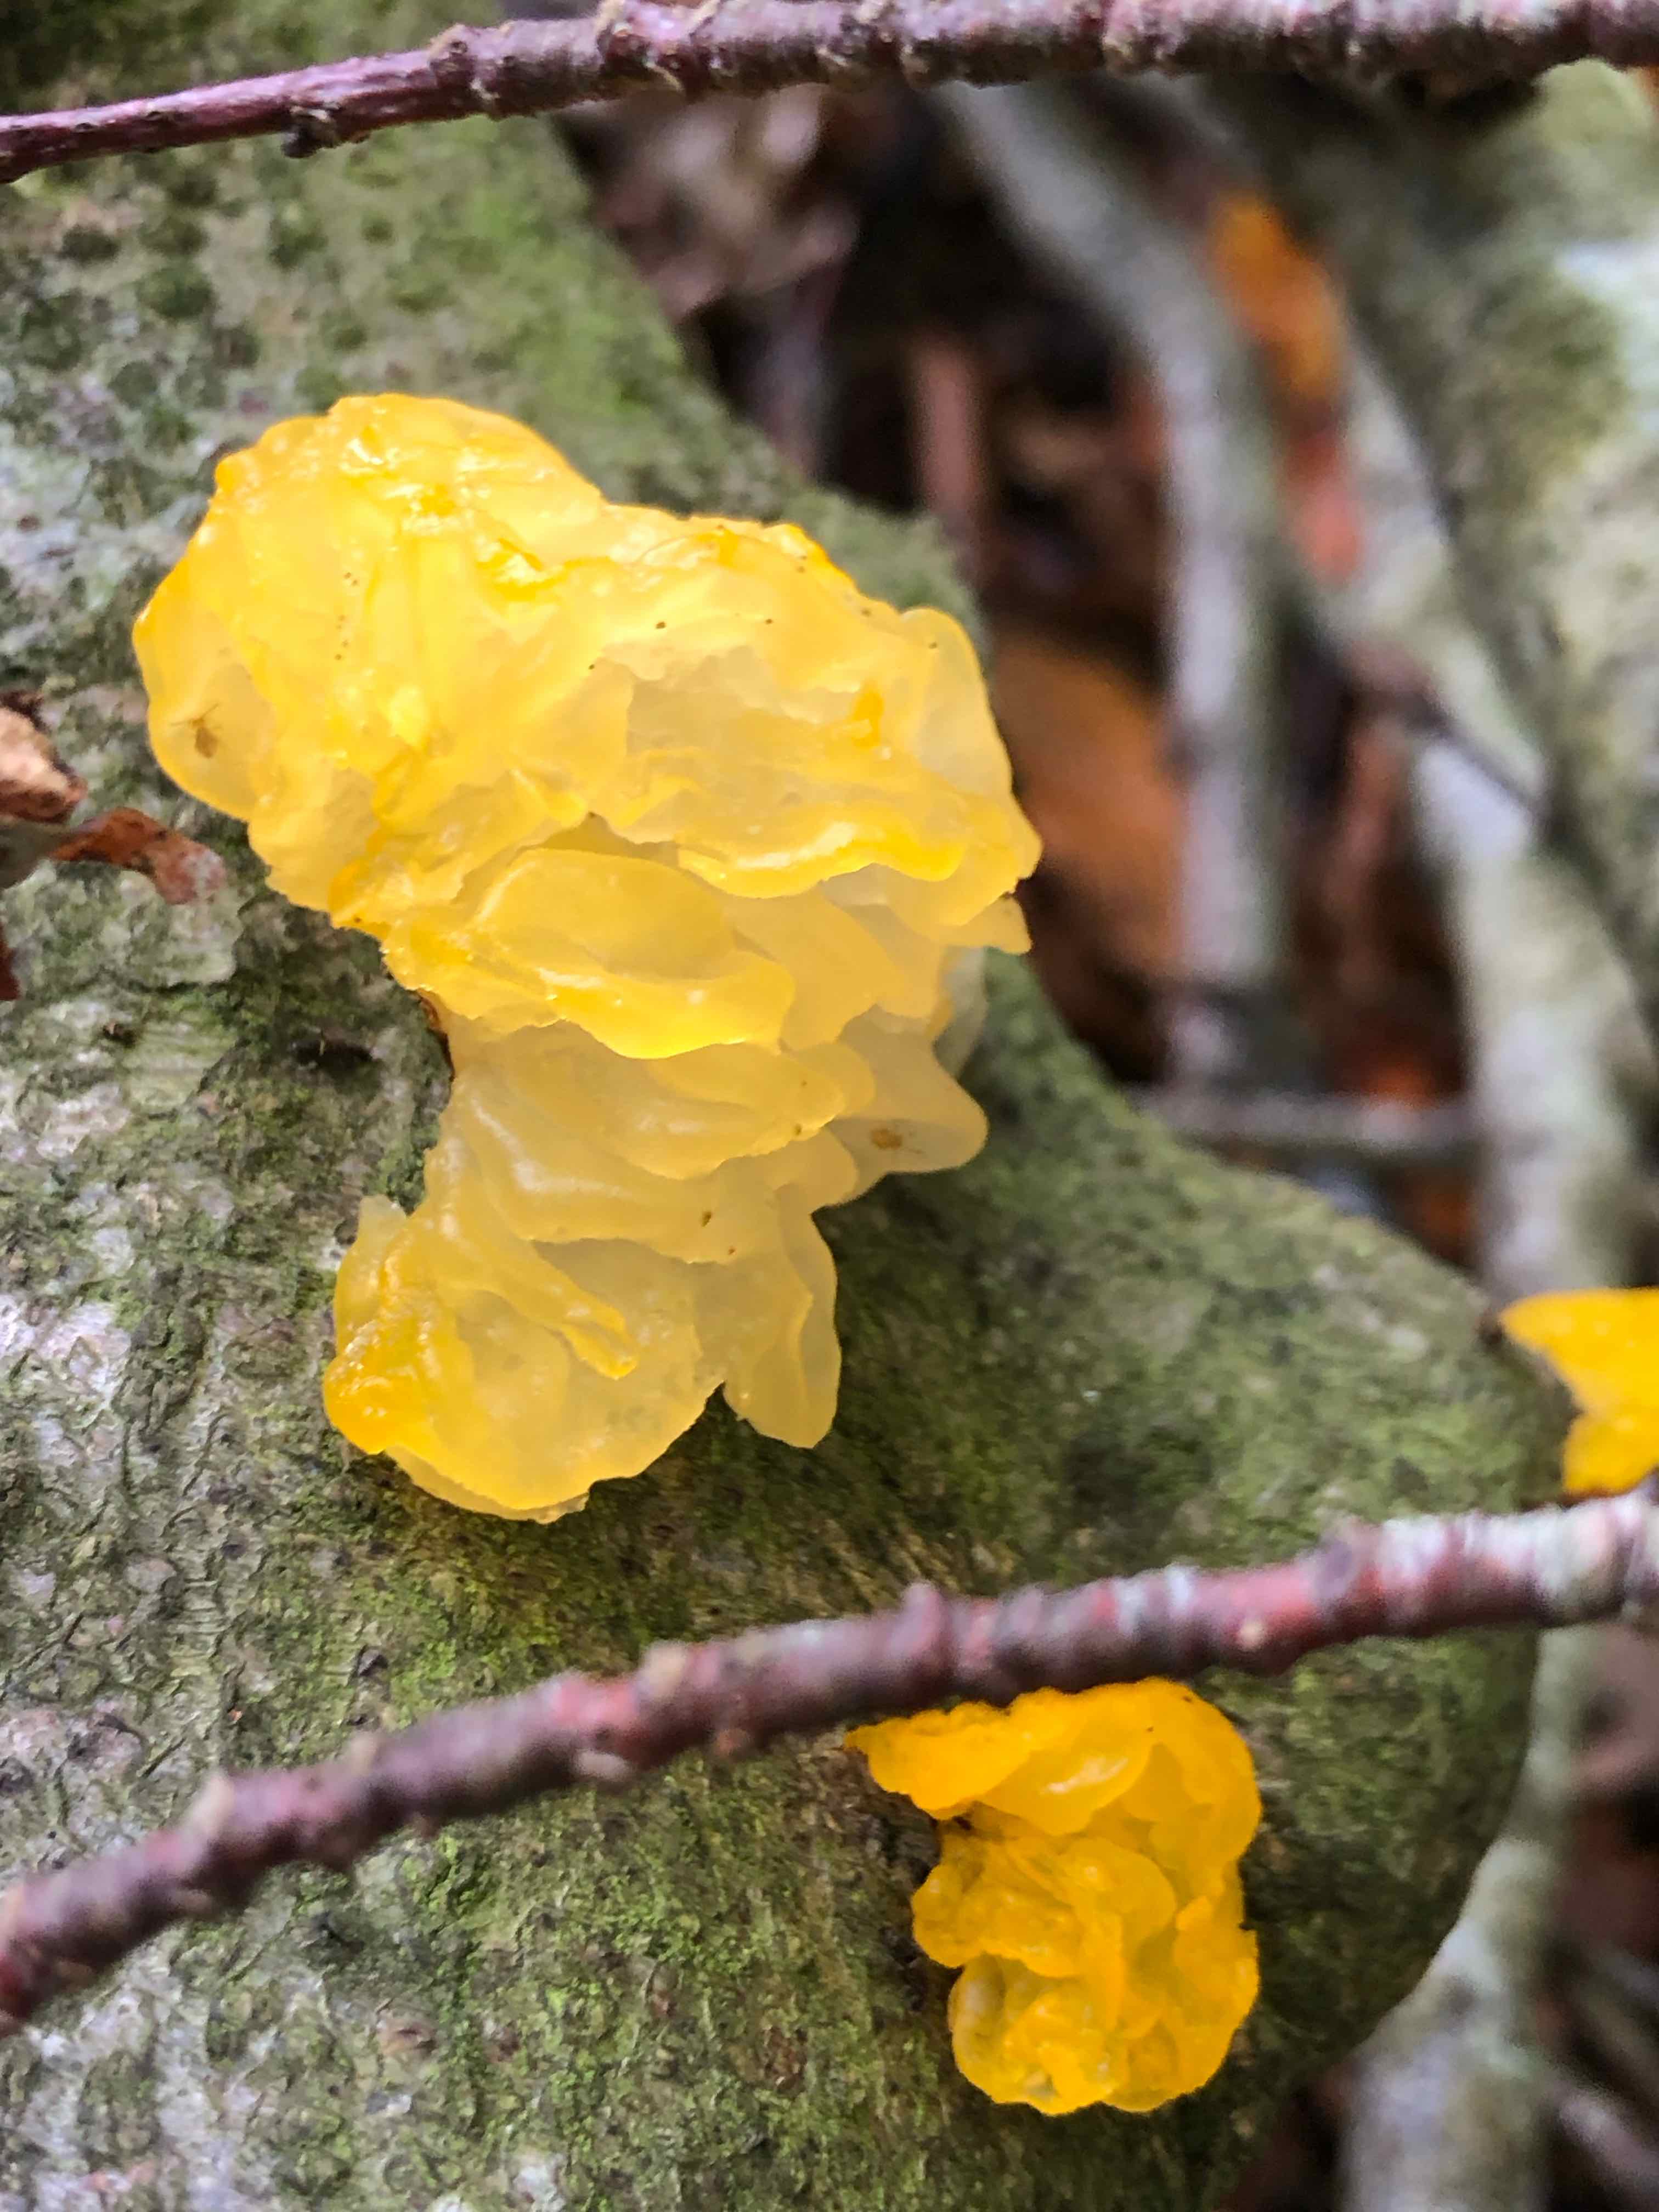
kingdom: Fungi
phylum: Basidiomycota
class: Tremellomycetes
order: Tremellales
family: Tremellaceae
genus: Tremella
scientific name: Tremella mesenterica
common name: gul bævresvamp
